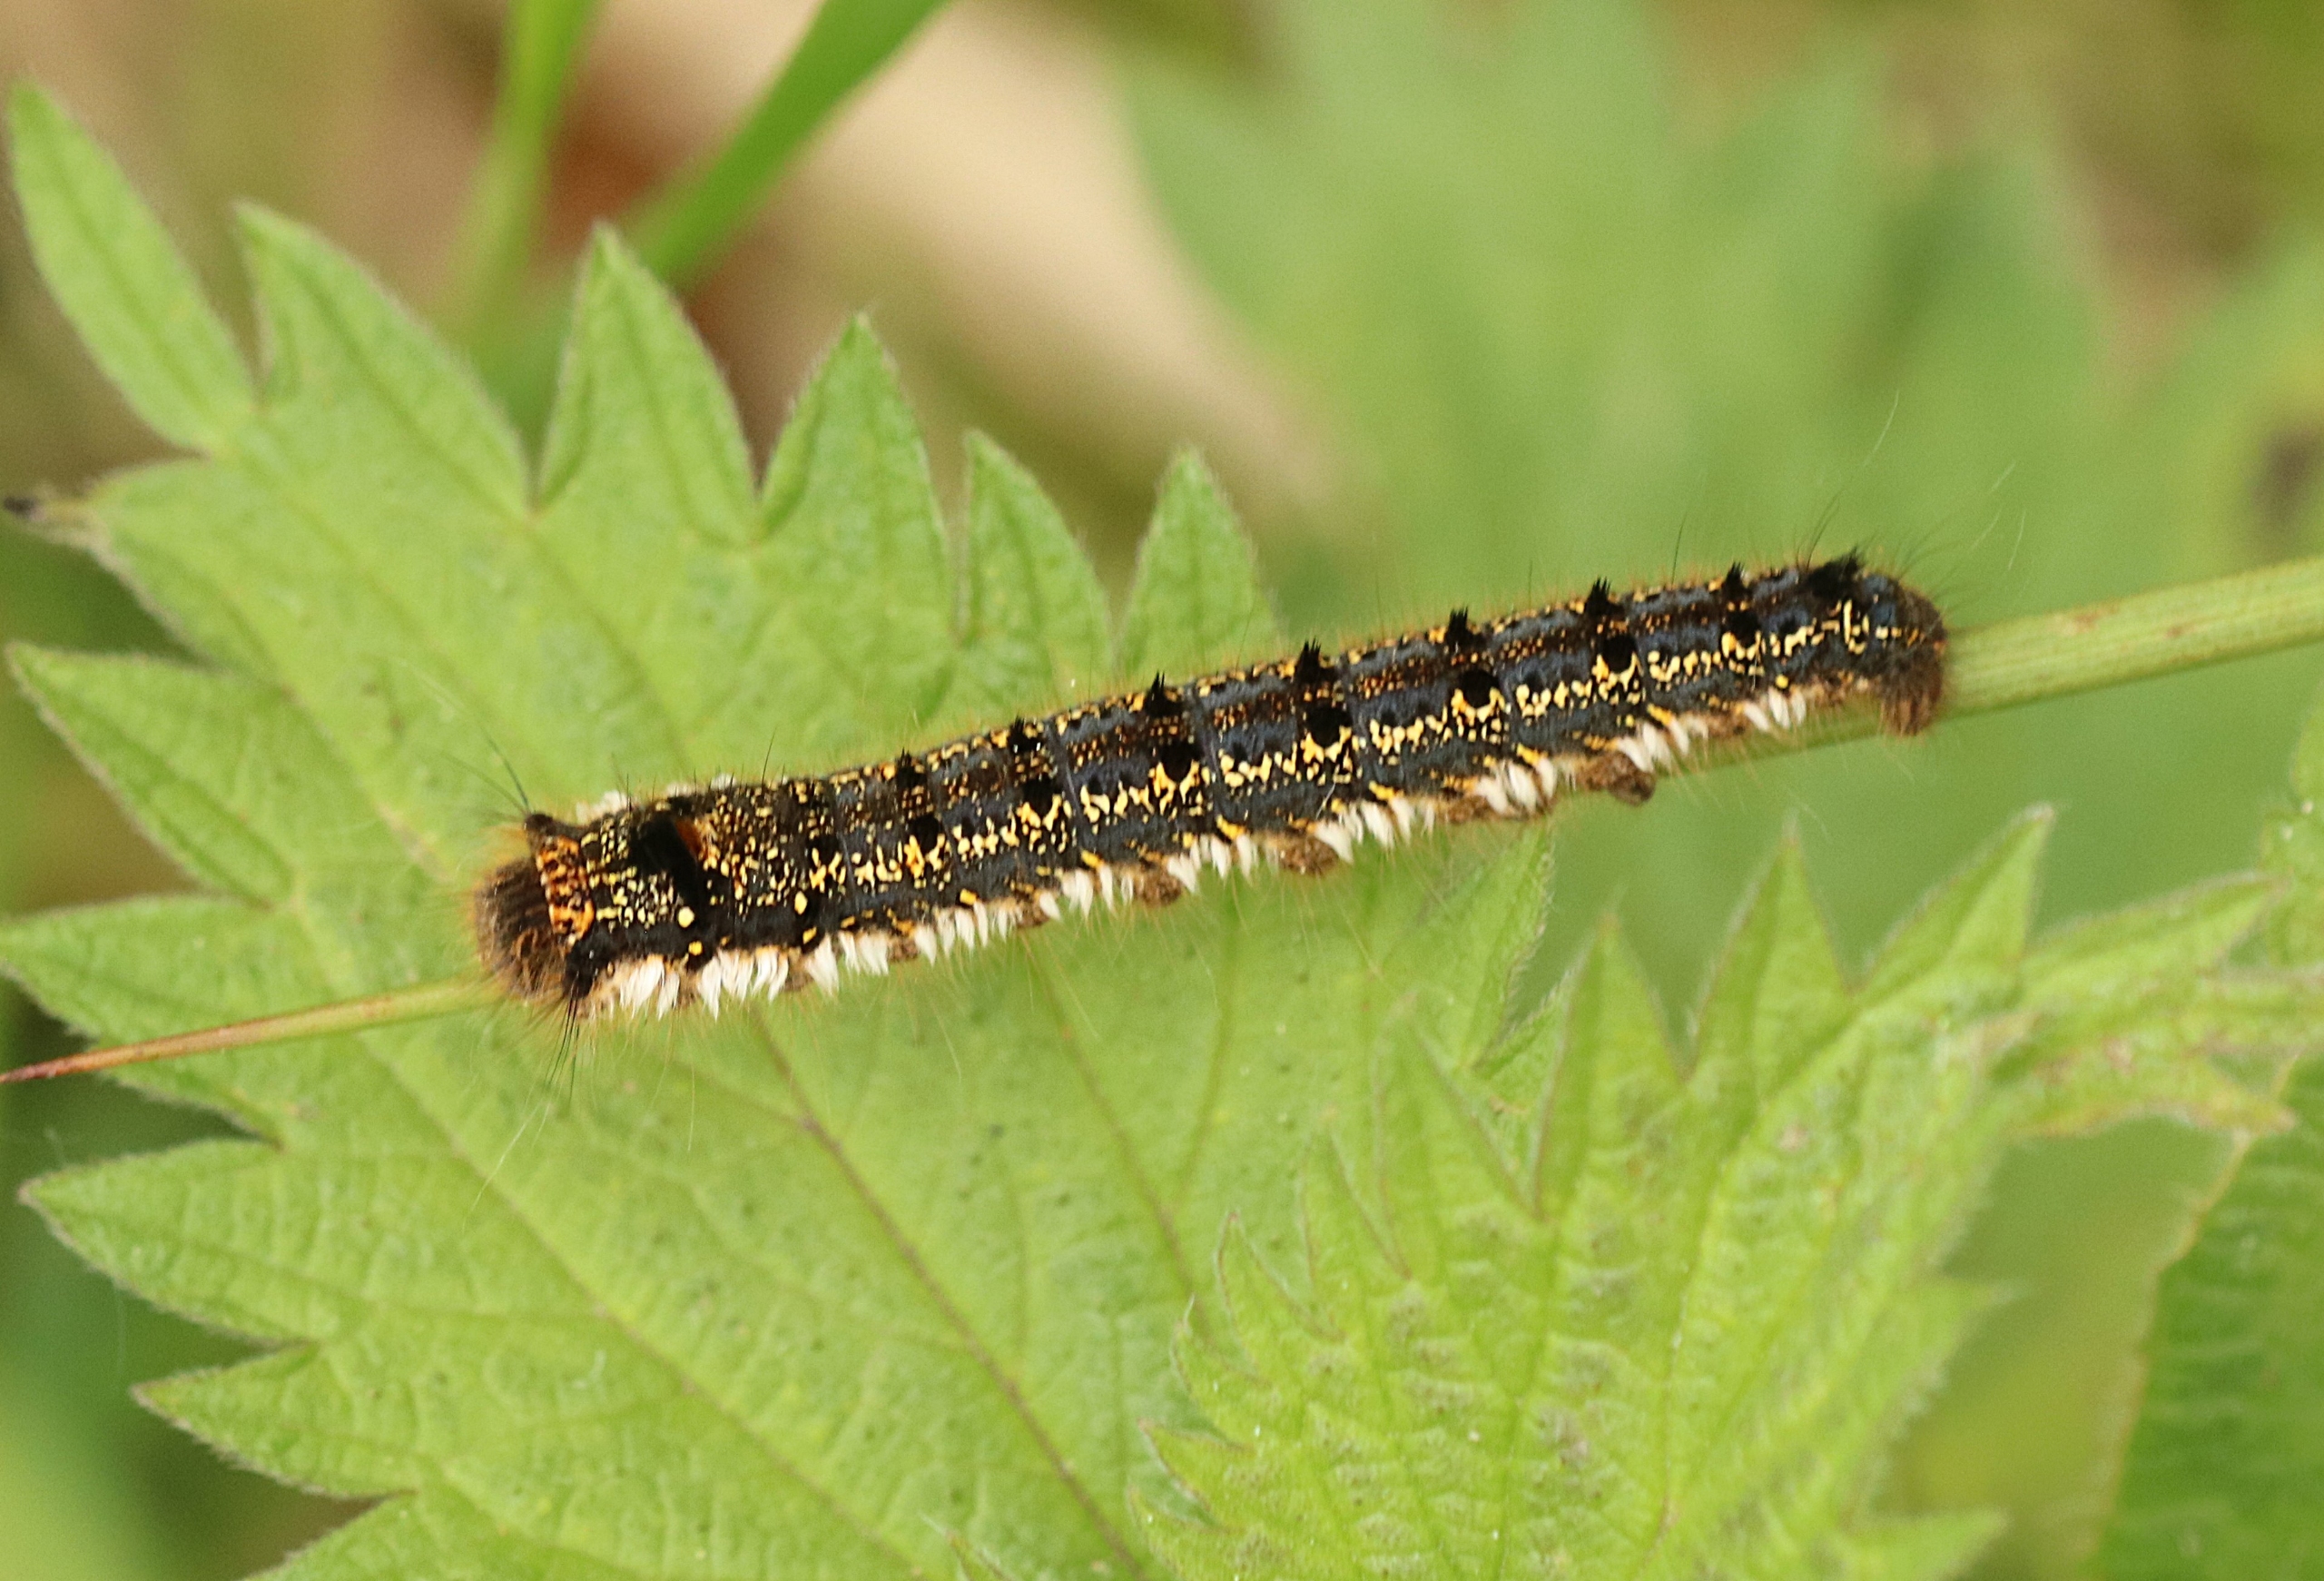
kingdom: Animalia
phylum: Arthropoda
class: Insecta
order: Lepidoptera
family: Lasiocampidae
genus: Euthrix
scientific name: Euthrix potatoria
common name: Græsspinder
